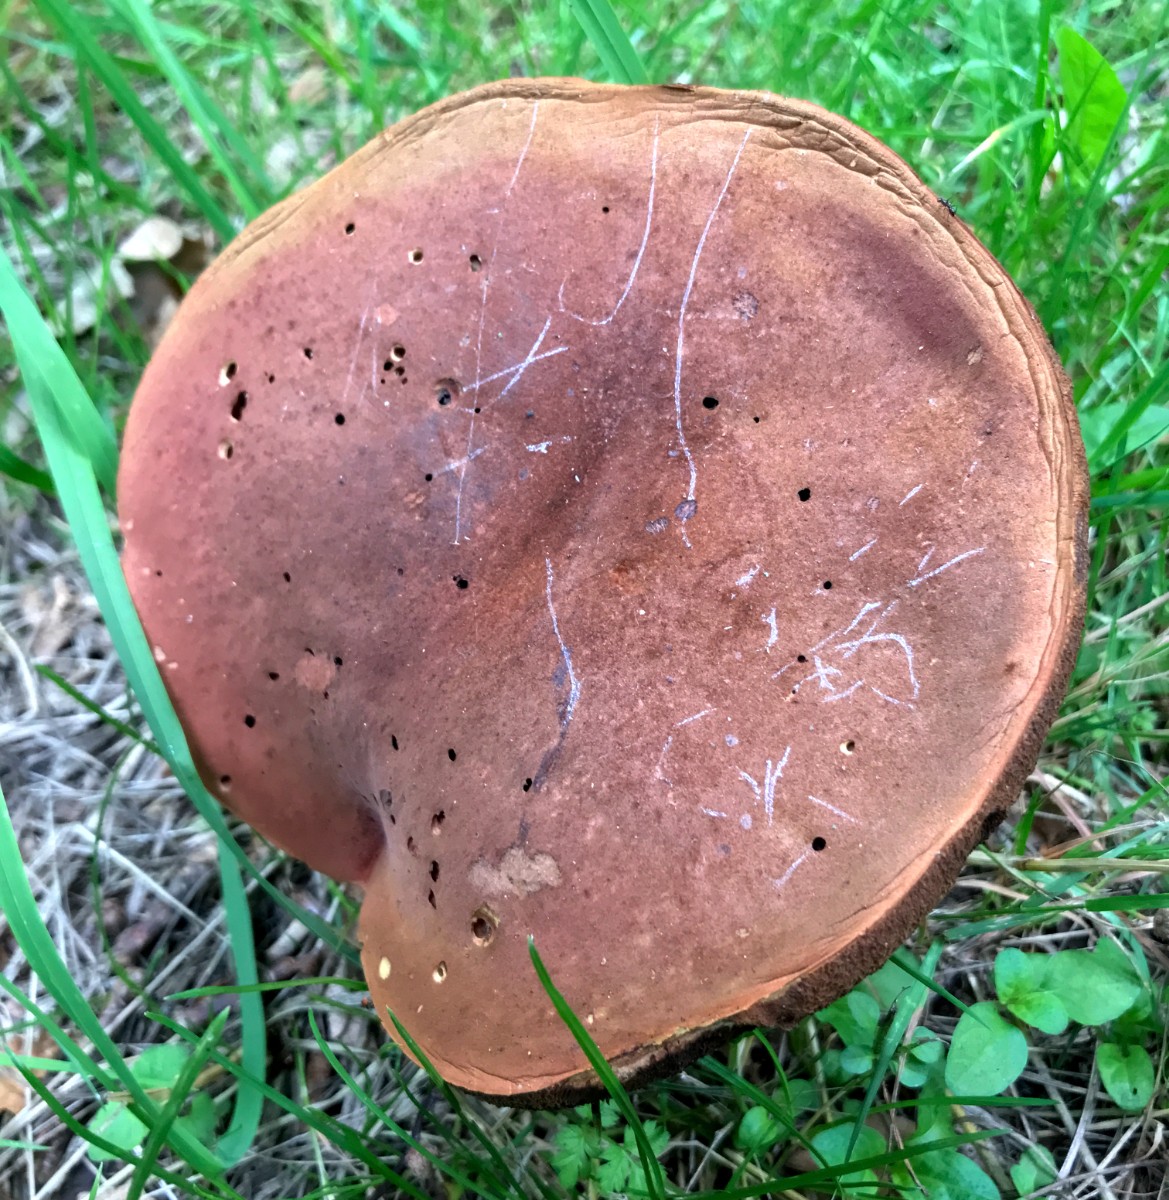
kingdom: Fungi
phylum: Basidiomycota
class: Agaricomycetes
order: Boletales
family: Boletaceae
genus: Neoboletus
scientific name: Neoboletus erythropus
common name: punktstokket indigorørhat
